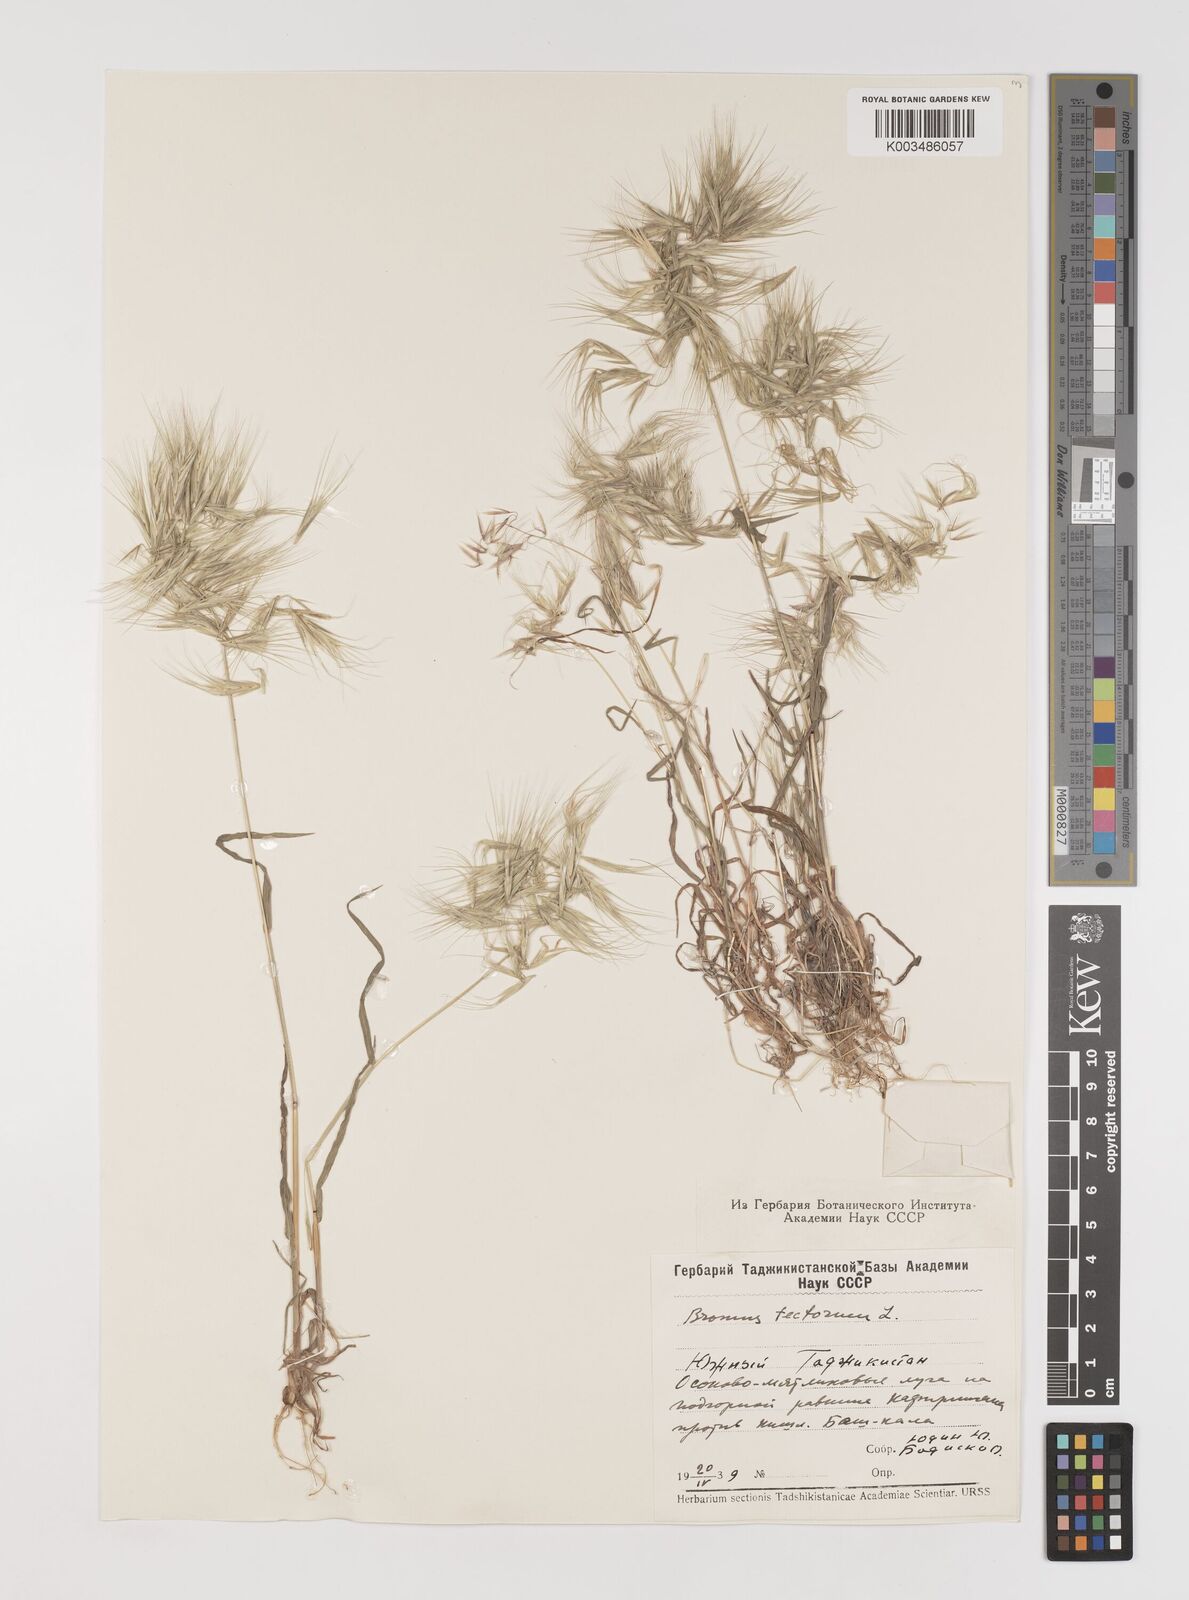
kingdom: Plantae
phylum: Tracheophyta
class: Liliopsida
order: Poales
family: Poaceae
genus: Bromus
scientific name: Bromus tectorum
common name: Cheatgrass
